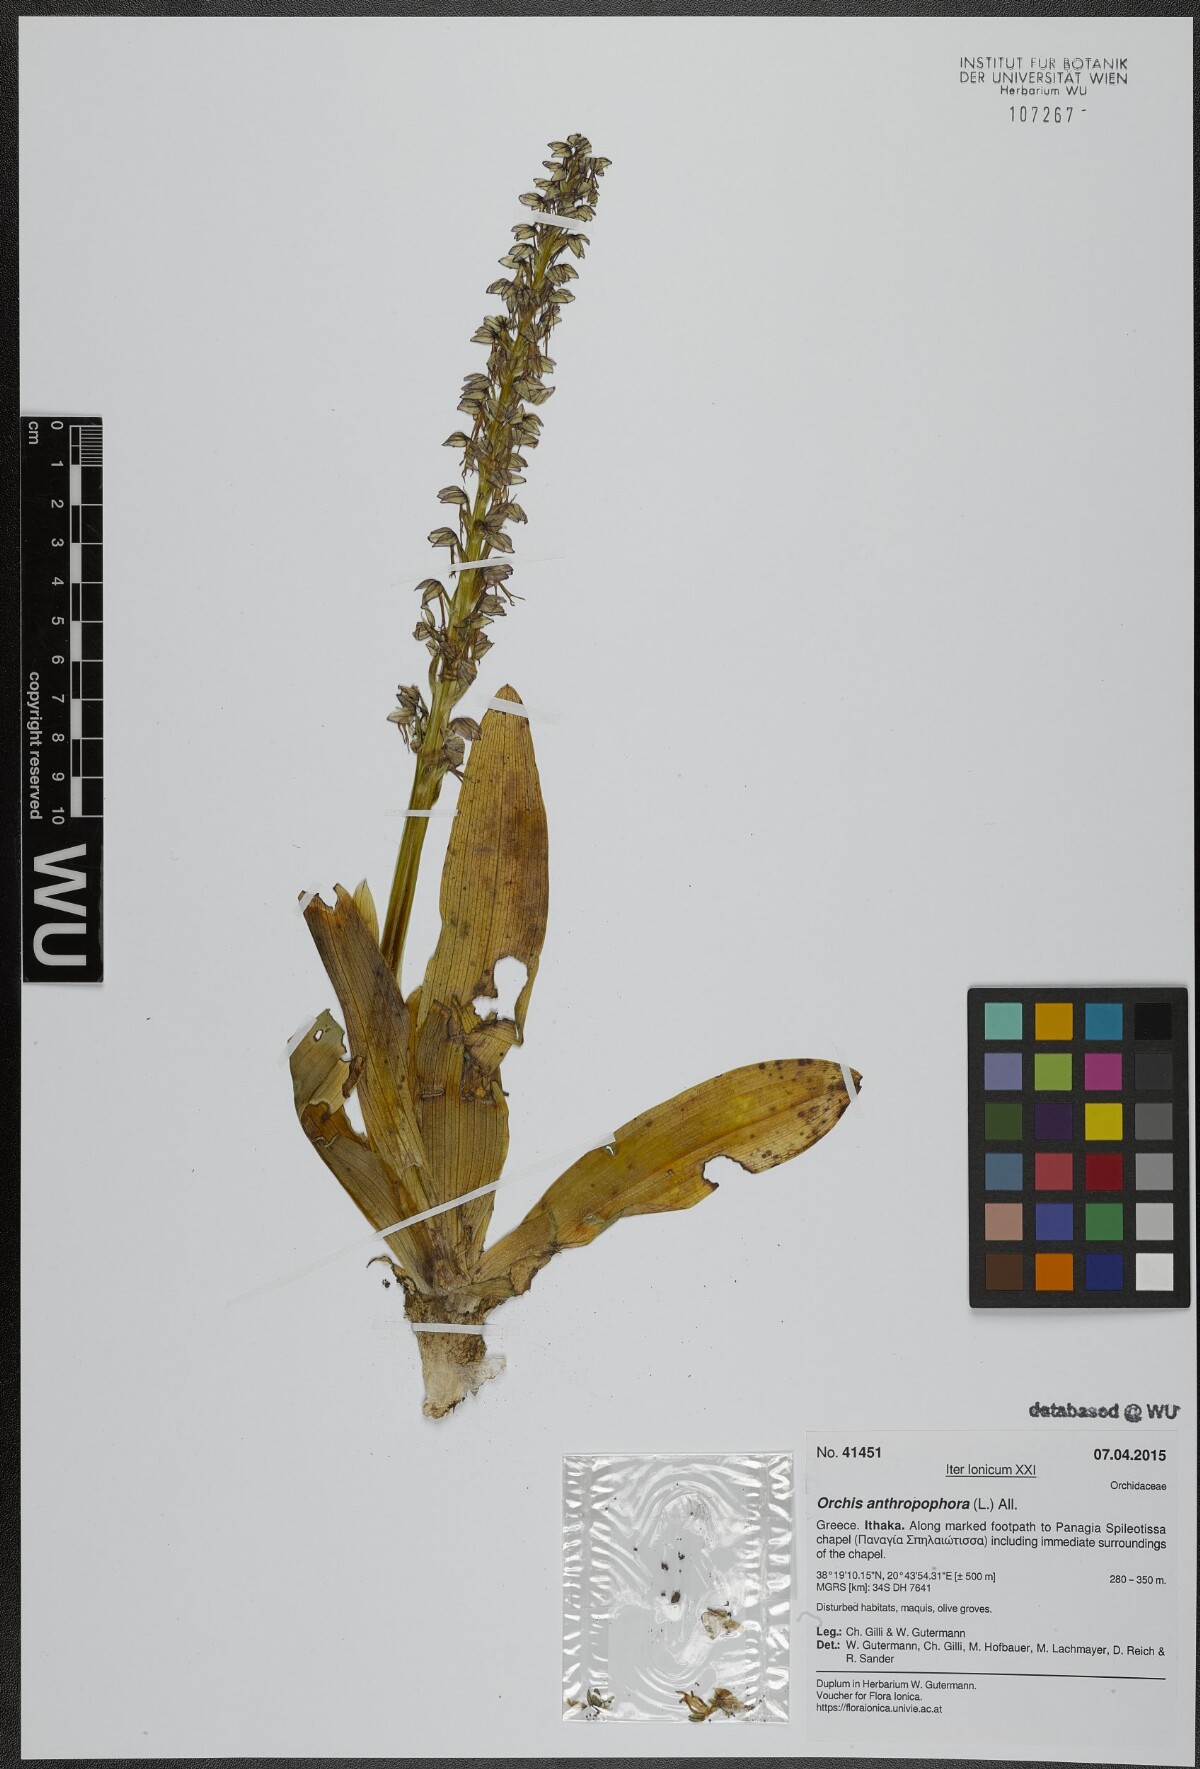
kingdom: Plantae
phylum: Tracheophyta
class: Liliopsida
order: Asparagales
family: Orchidaceae
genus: Orchis
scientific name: Orchis anthropophora
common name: Man orchid
